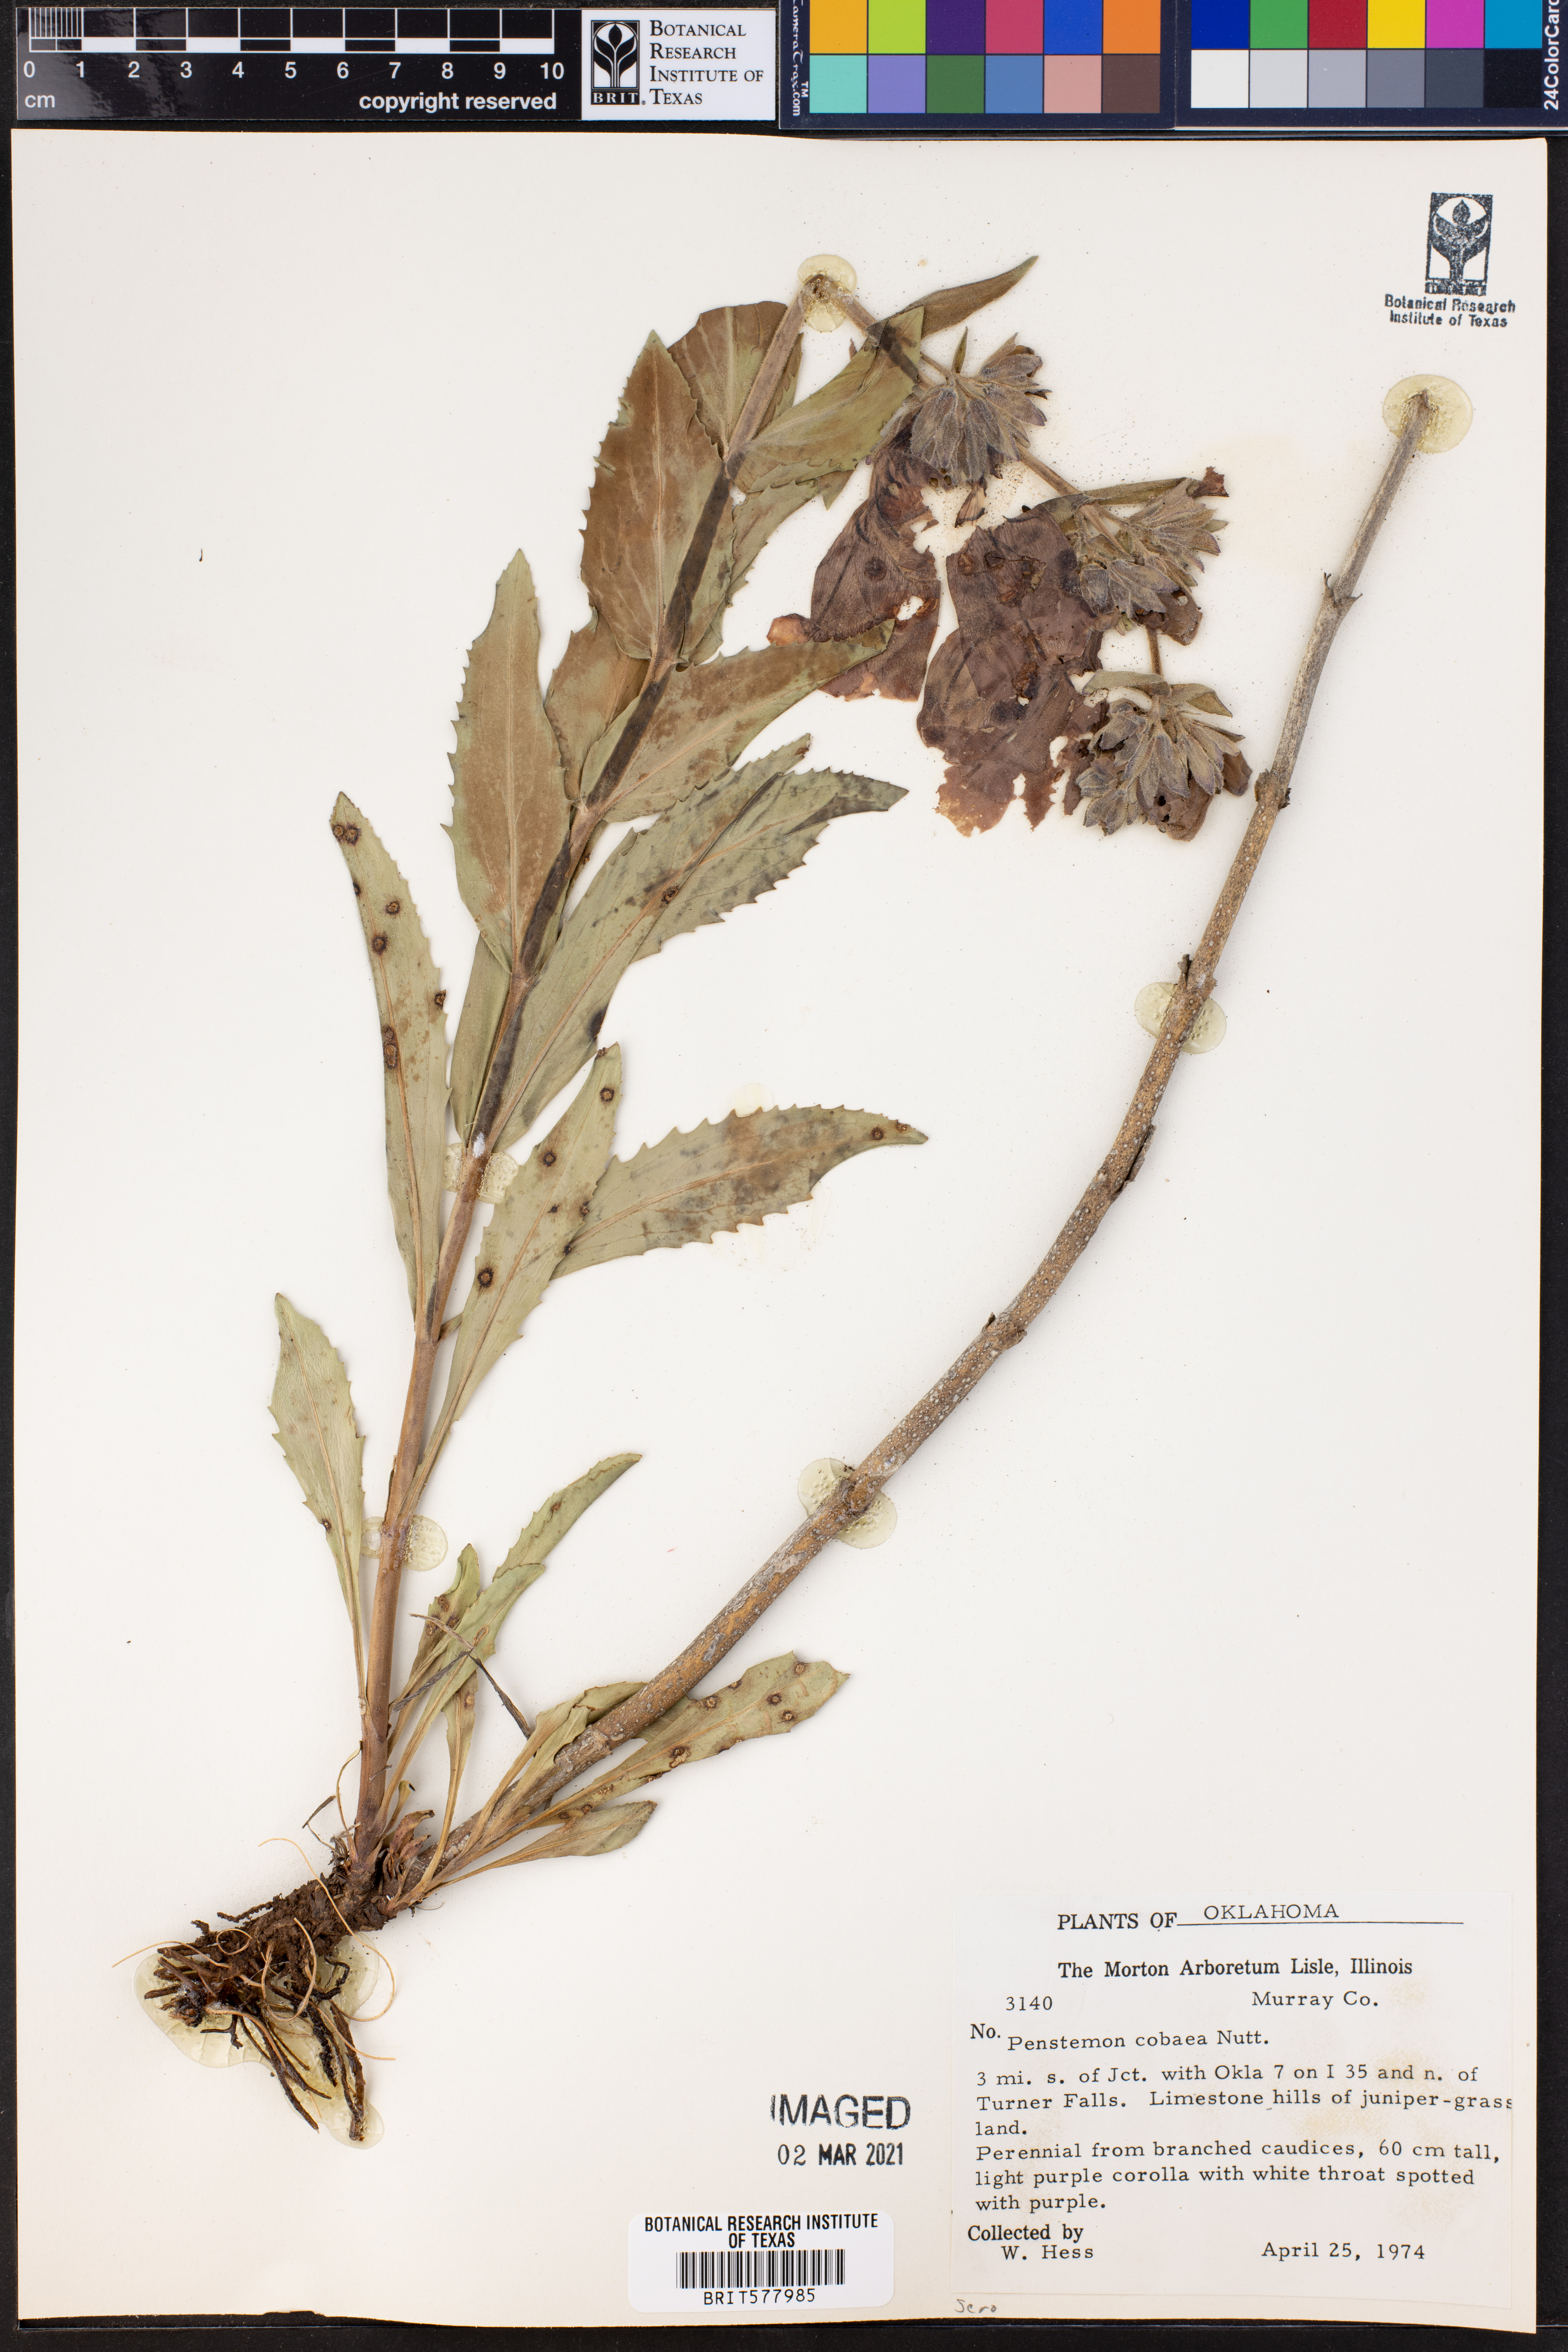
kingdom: Plantae
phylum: Tracheophyta
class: Magnoliopsida
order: Lamiales
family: Plantaginaceae
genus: Penstemon
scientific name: Penstemon cobaea
